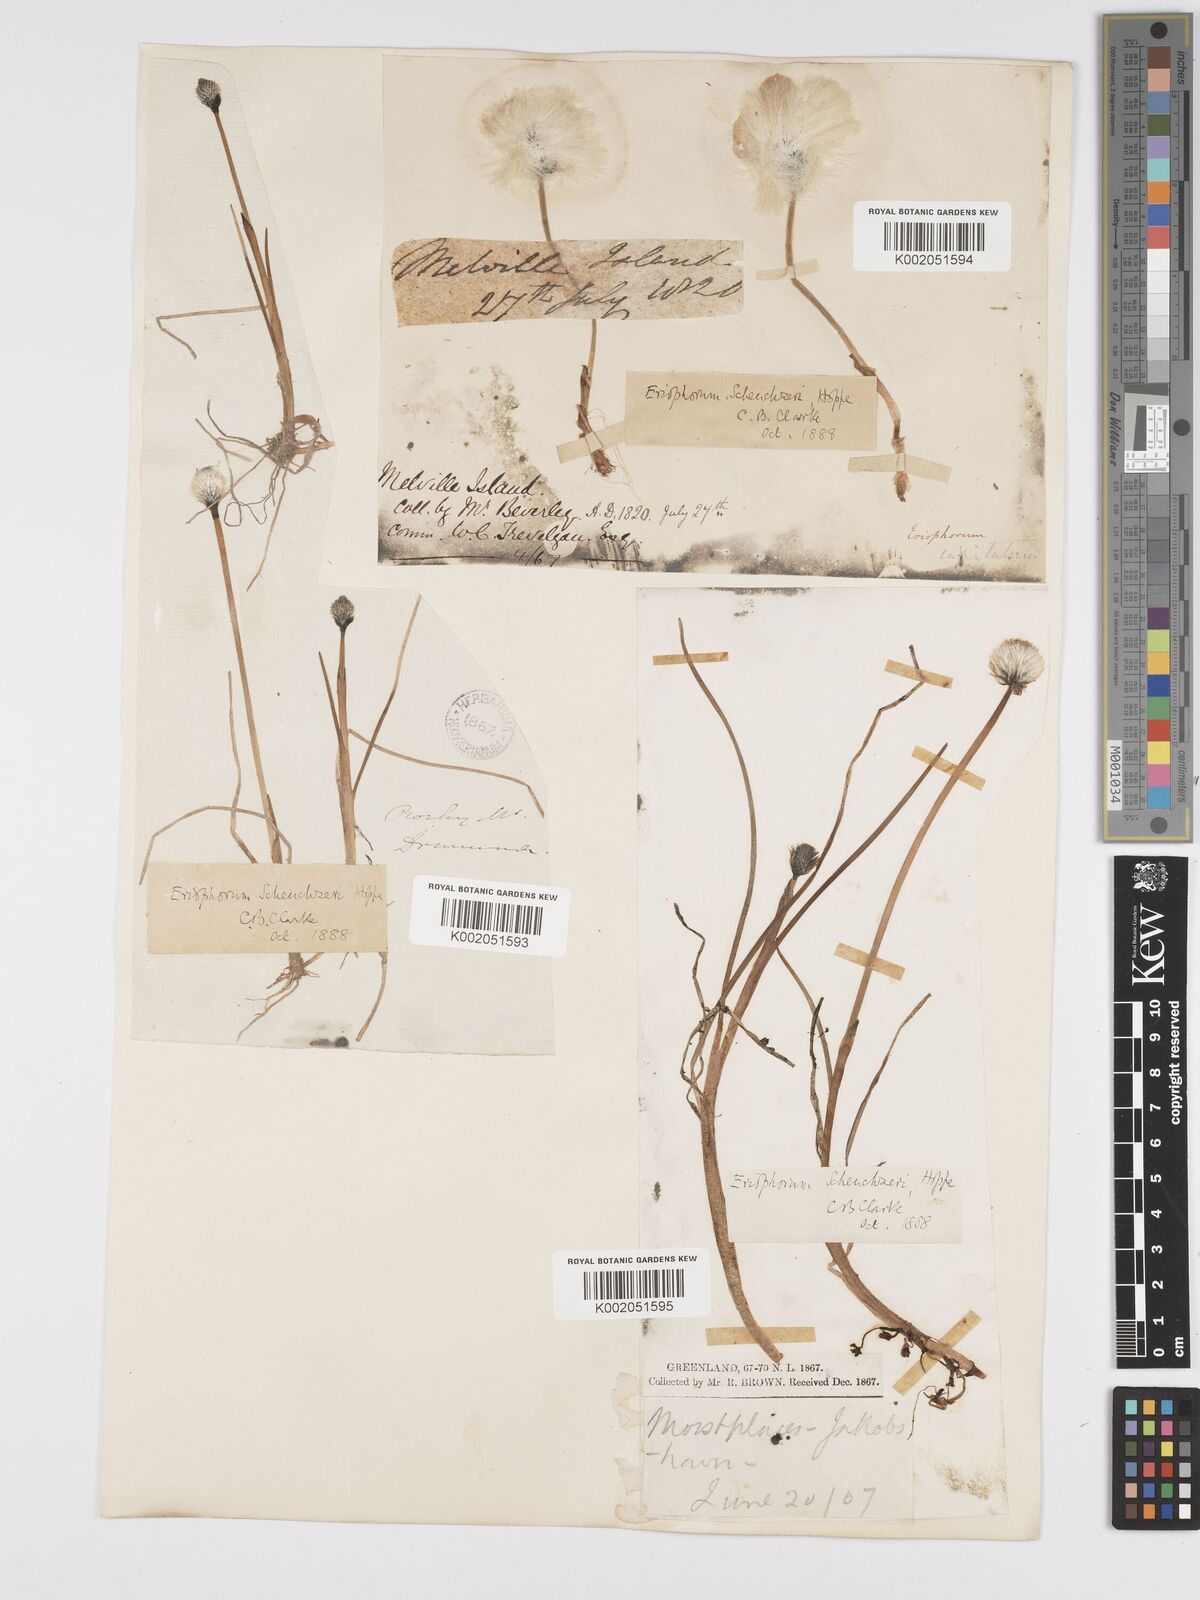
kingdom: Plantae
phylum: Tracheophyta
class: Liliopsida
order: Poales
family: Cyperaceae
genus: Eriophorum
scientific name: Eriophorum scheuchzeri
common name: Scheuchzer's cottongrass
